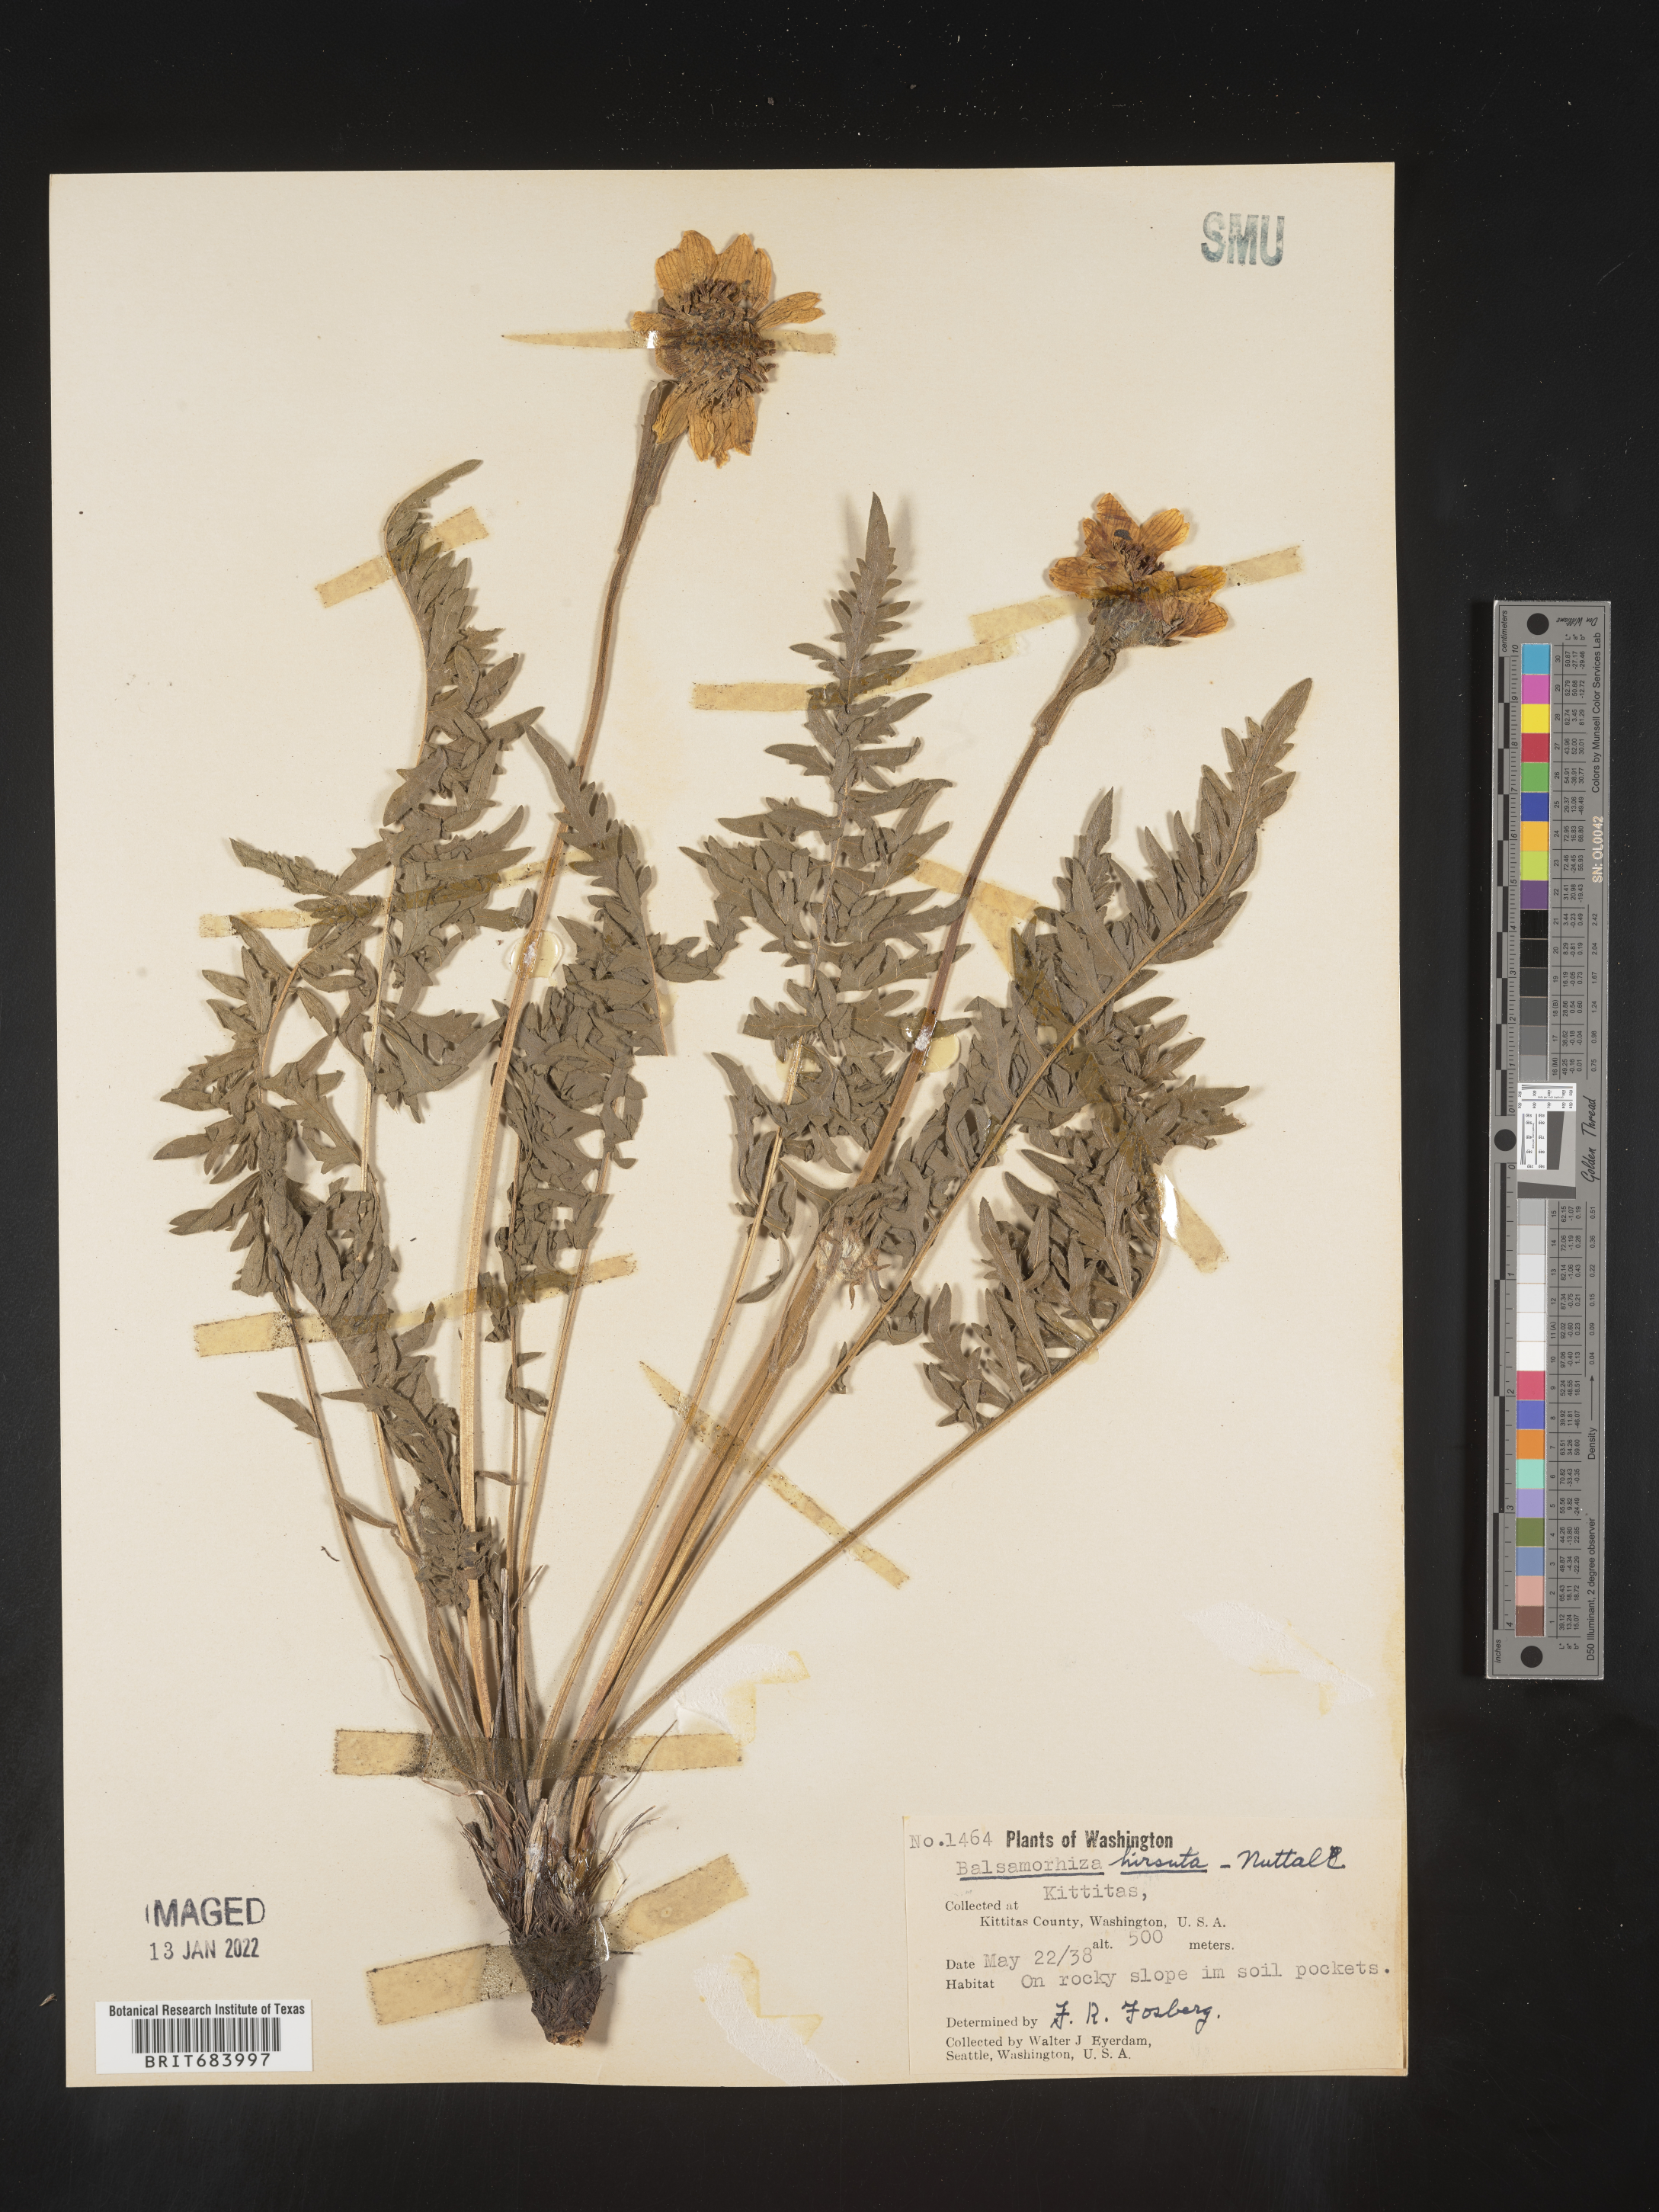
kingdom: Plantae
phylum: Tracheophyta
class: Magnoliopsida
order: Asterales
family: Asteraceae
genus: Balsamorhiza
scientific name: Balsamorhiza hookeri
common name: Hooker's balsamroot
